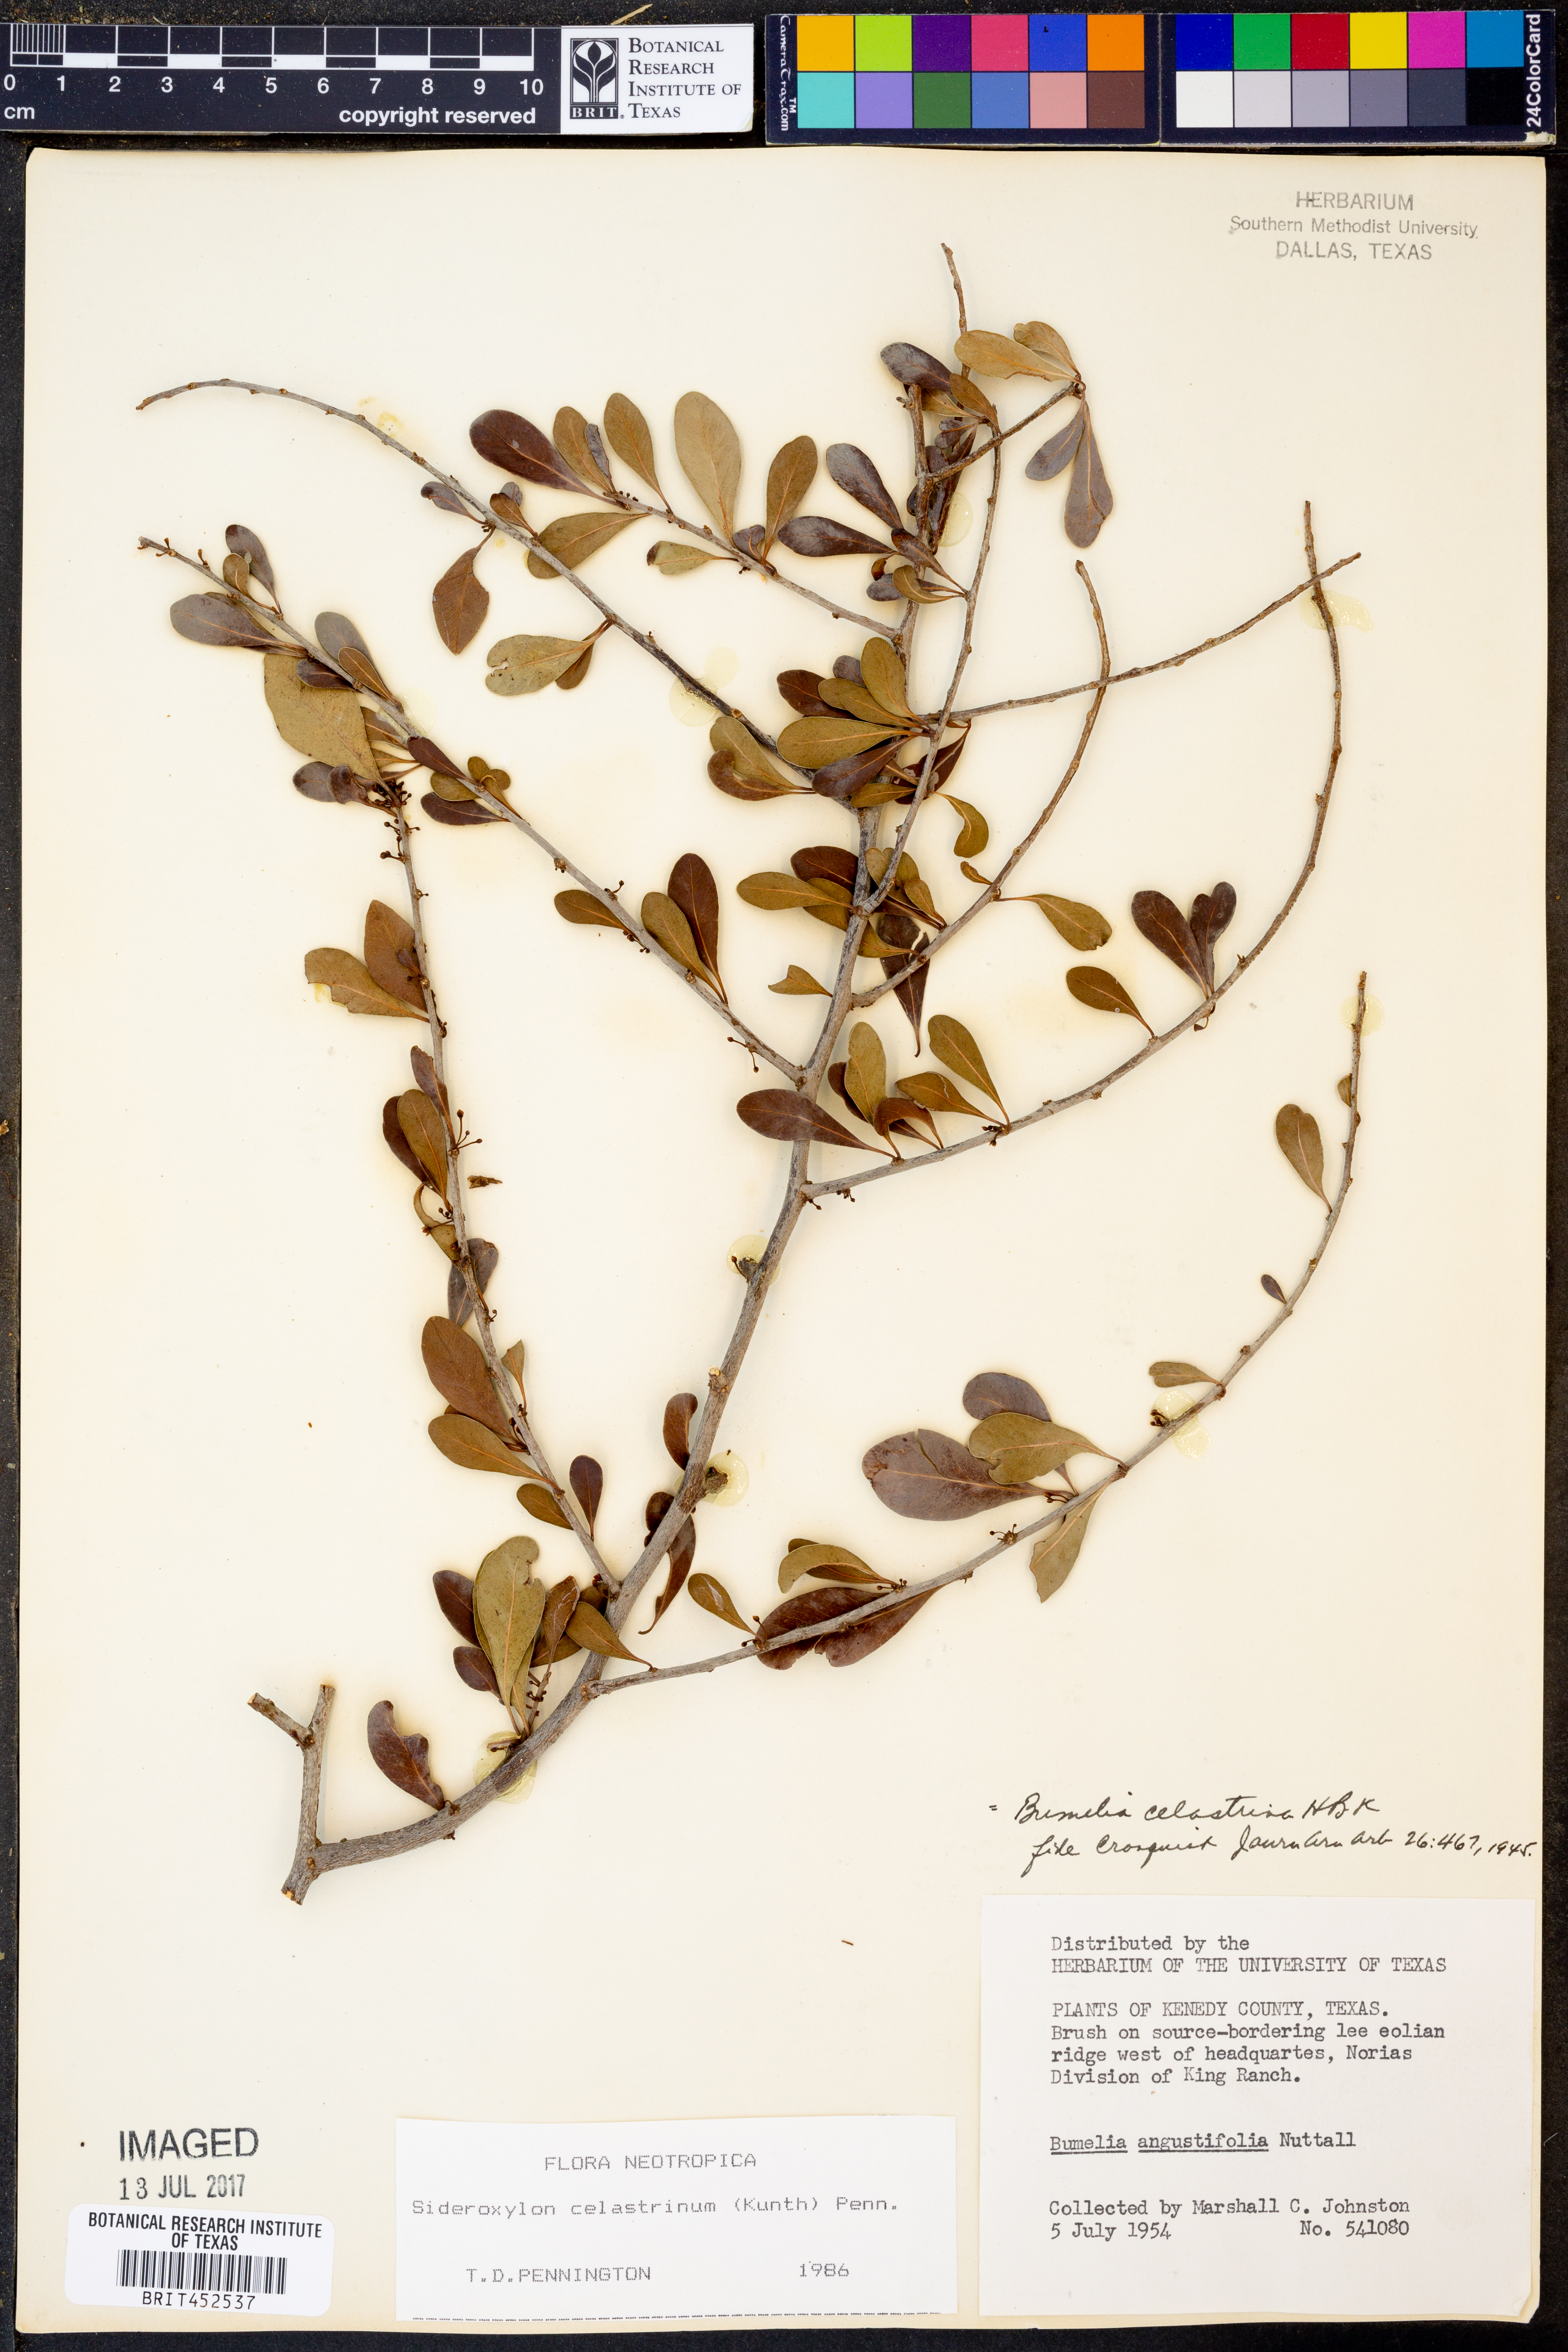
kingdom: Plantae
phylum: Tracheophyta
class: Magnoliopsida
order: Ericales
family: Sapotaceae
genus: Sideroxylon
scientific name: Sideroxylon celastrinum
